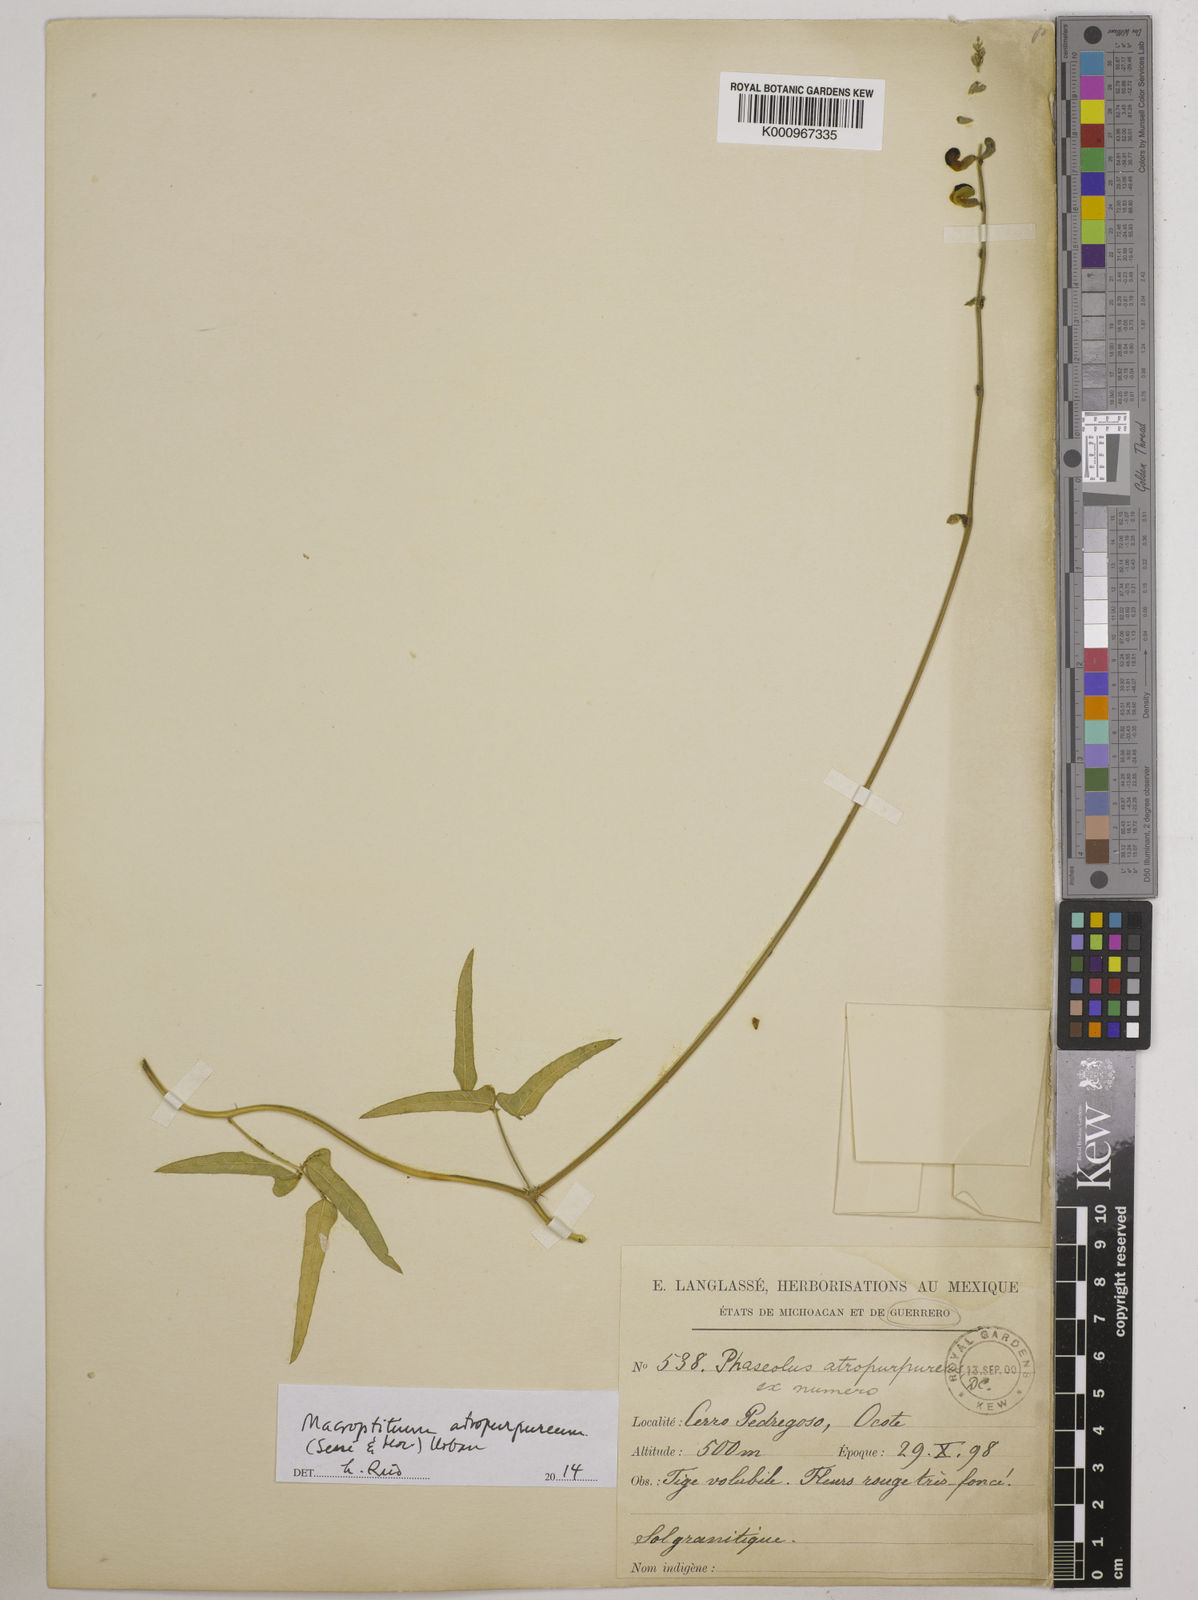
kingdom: Plantae
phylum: Tracheophyta
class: Magnoliopsida
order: Fabales
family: Fabaceae
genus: Macroptilium
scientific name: Macroptilium atropurpureum
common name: Purple bushbean
